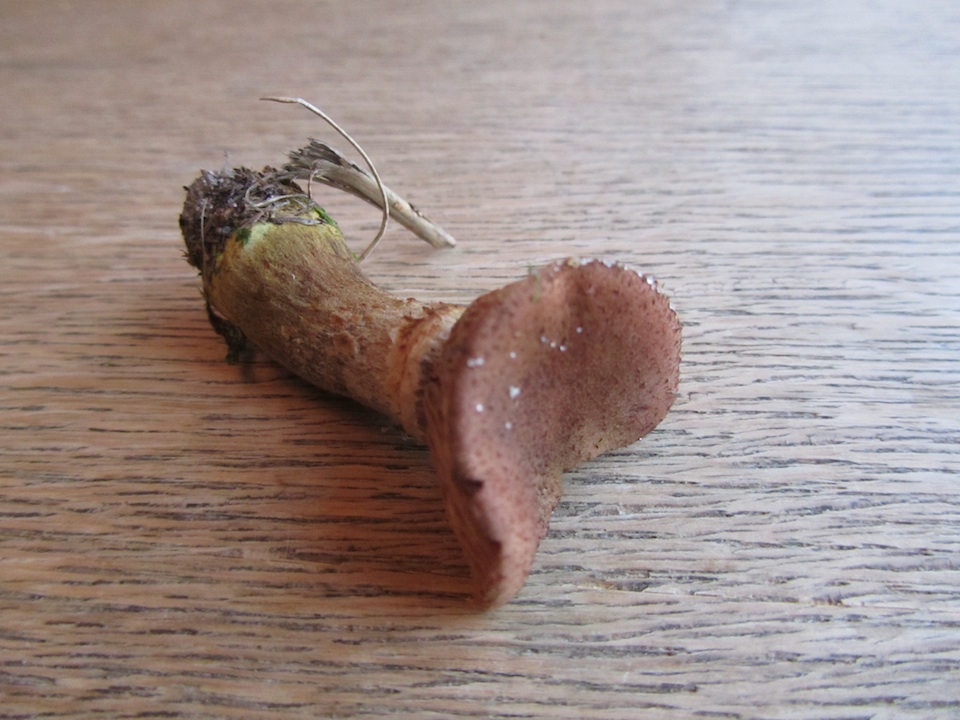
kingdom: Fungi
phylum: Basidiomycota
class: Agaricomycetes
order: Agaricales
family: Physalacriaceae
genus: Armillaria
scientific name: Armillaria lutea
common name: køllestokket honningsvamp
